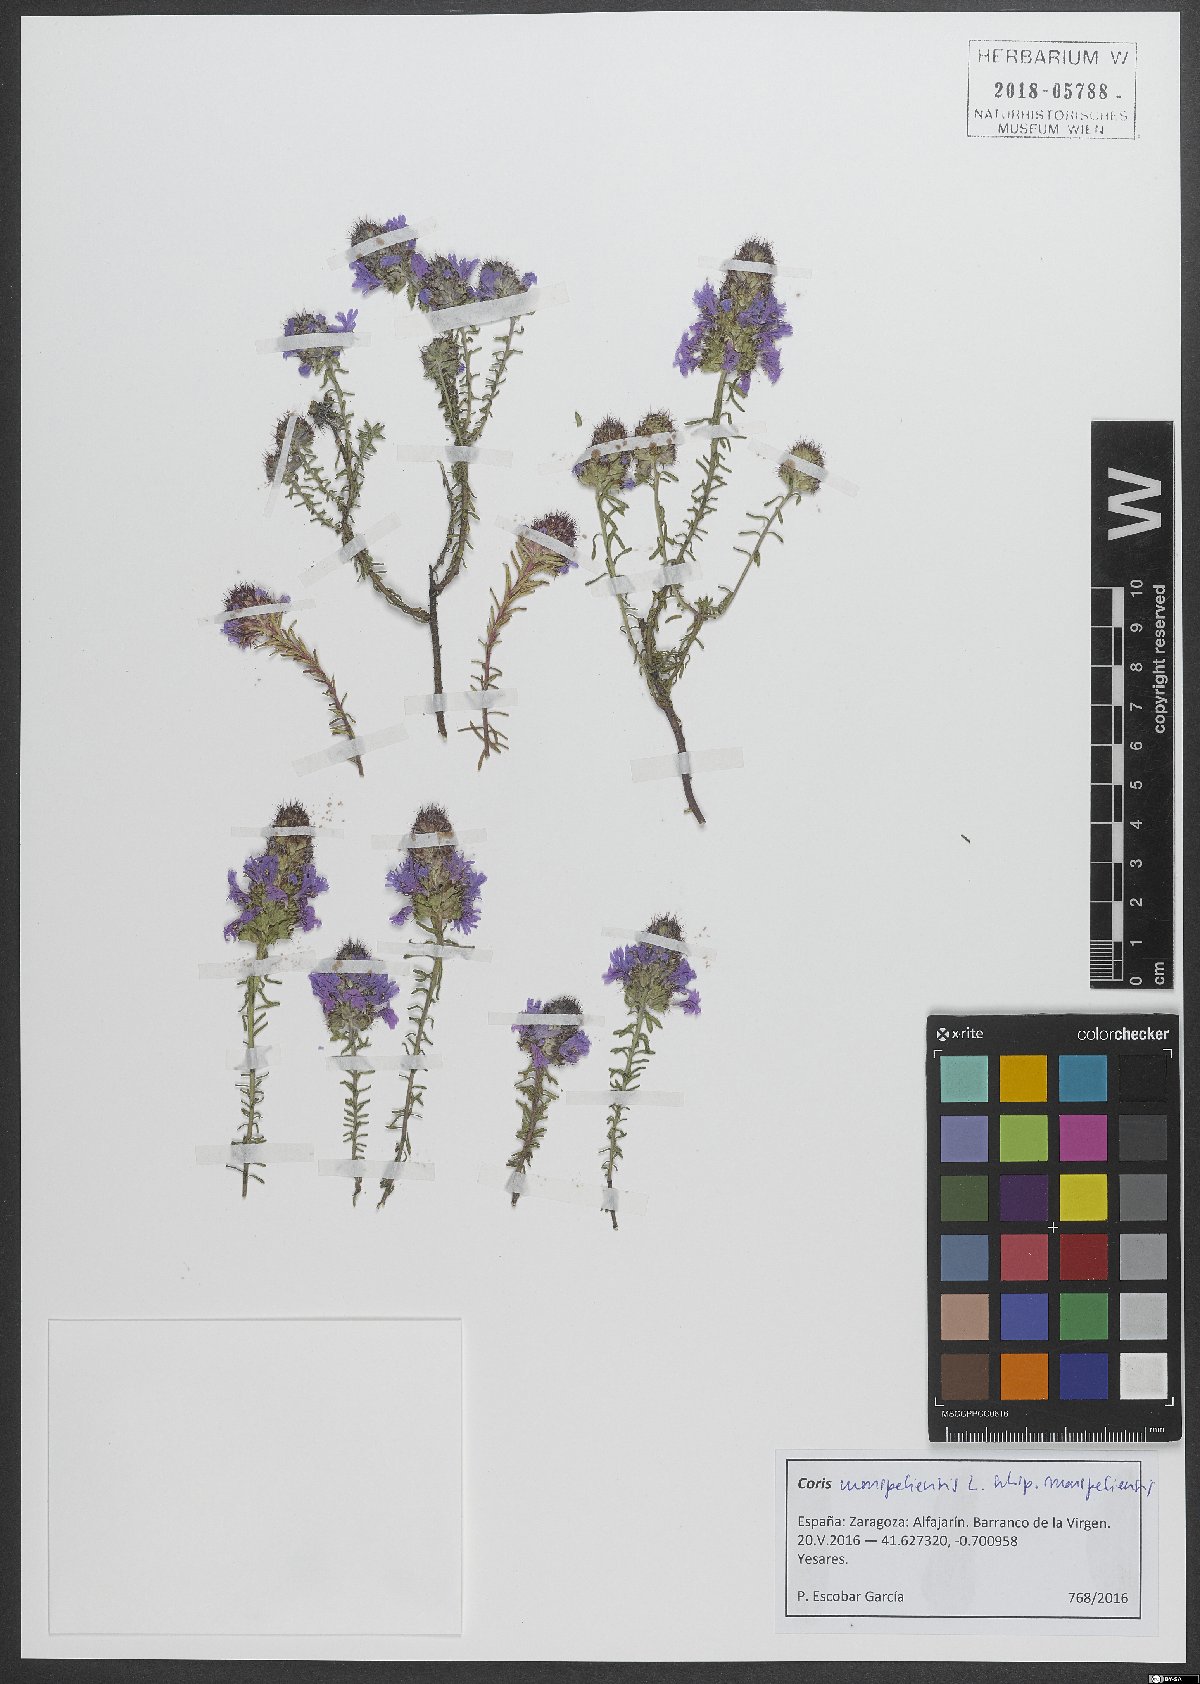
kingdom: Plantae
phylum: Tracheophyta
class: Magnoliopsida
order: Ericales
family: Primulaceae
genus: Coris
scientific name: Coris monspeliensis
